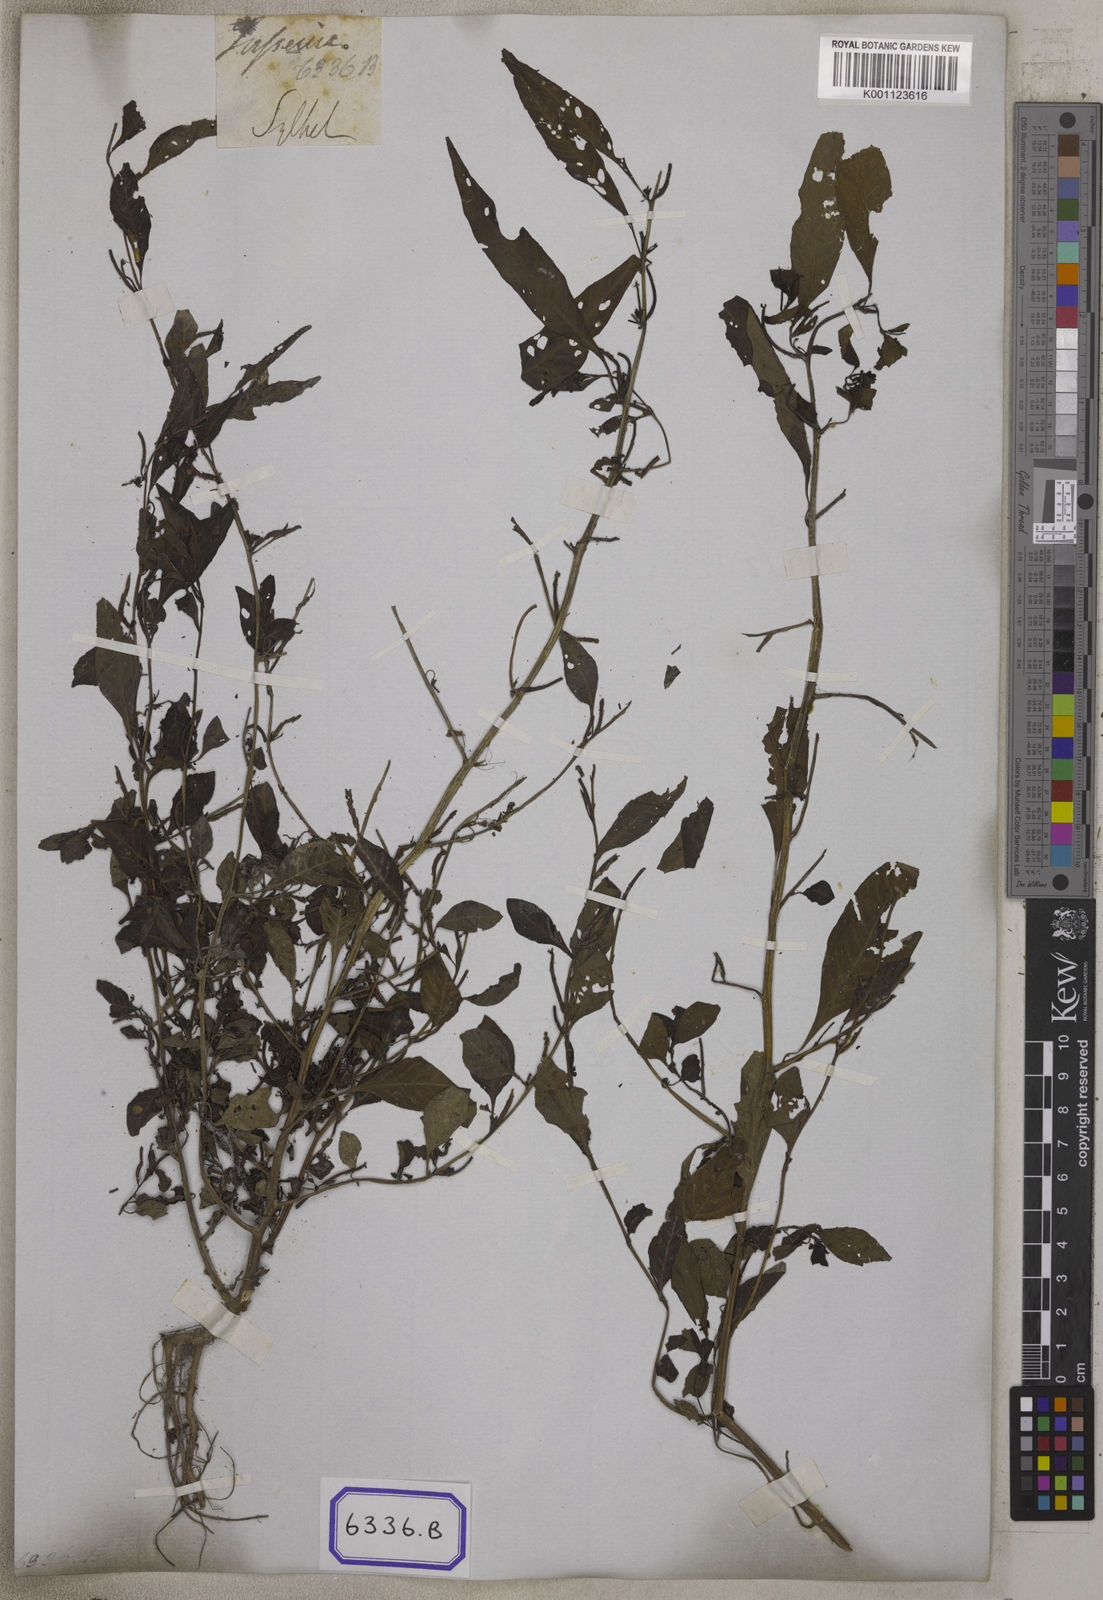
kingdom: Plantae
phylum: Tracheophyta
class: Magnoliopsida
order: Myrtales
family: Onagraceae
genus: Ludwigia
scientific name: Ludwigia prostrata
